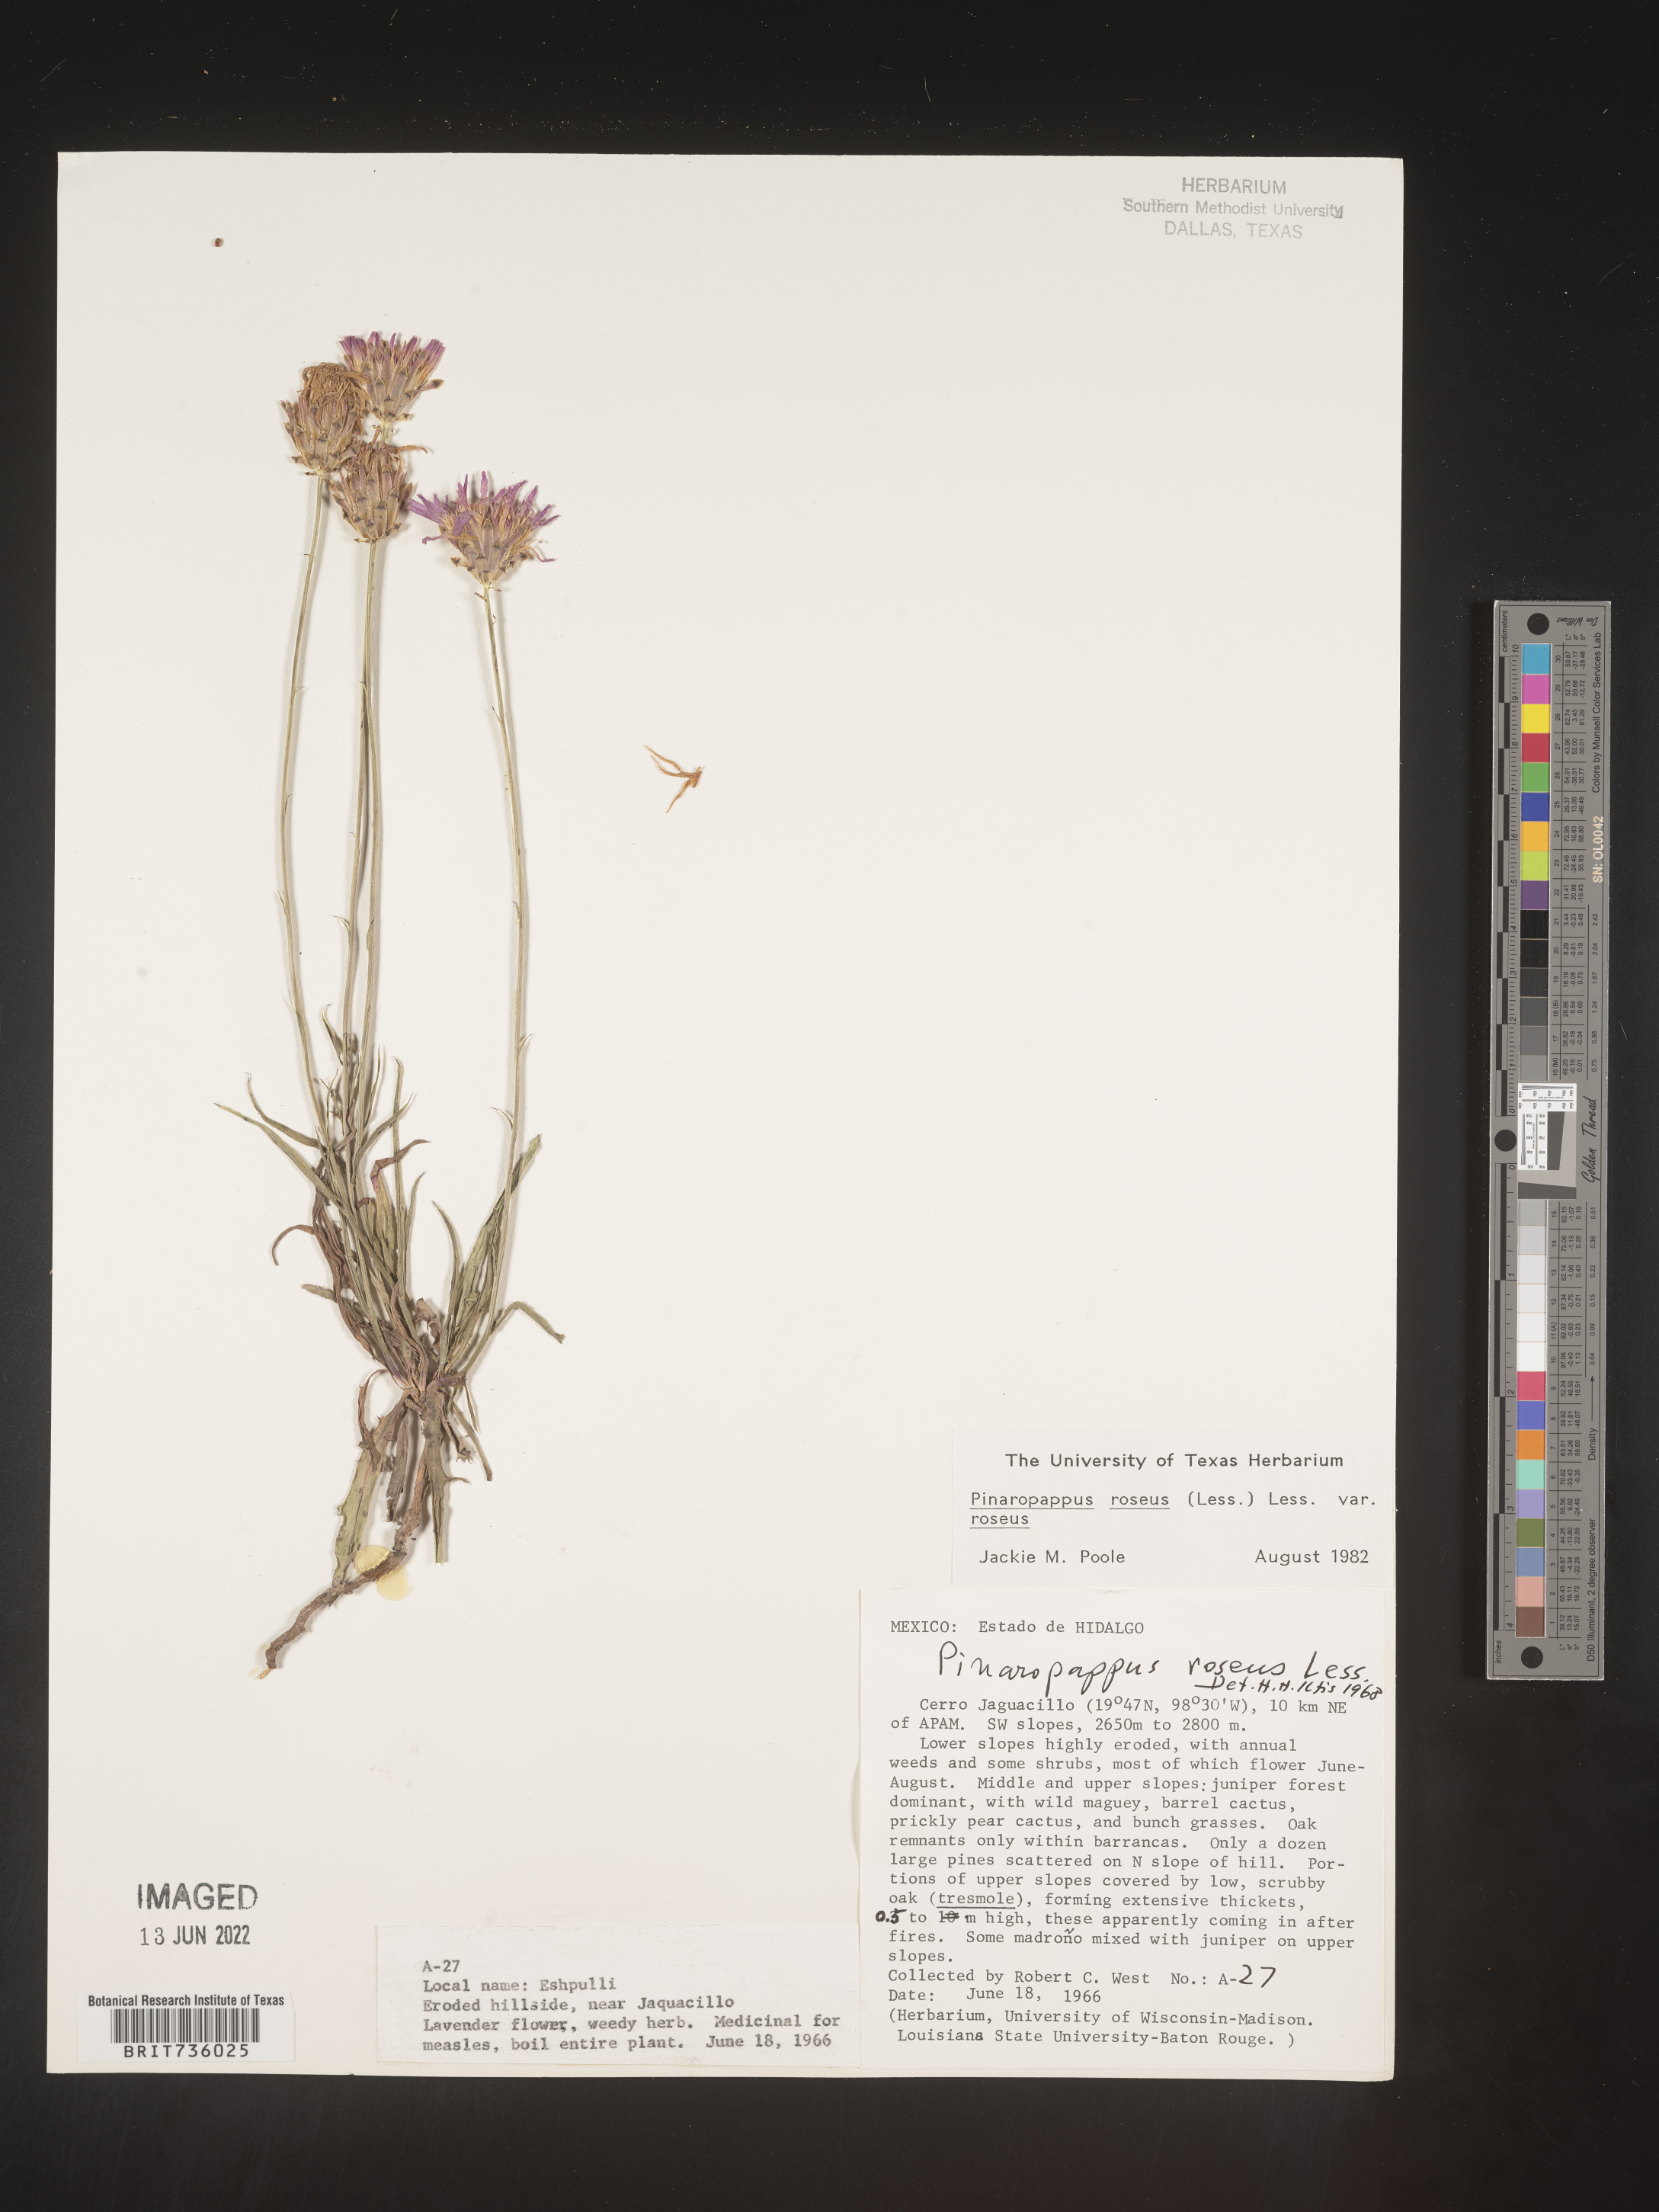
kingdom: Plantae
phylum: Tracheophyta
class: Magnoliopsida
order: Asterales
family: Asteraceae
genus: Pinaropappus
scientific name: Pinaropappus
